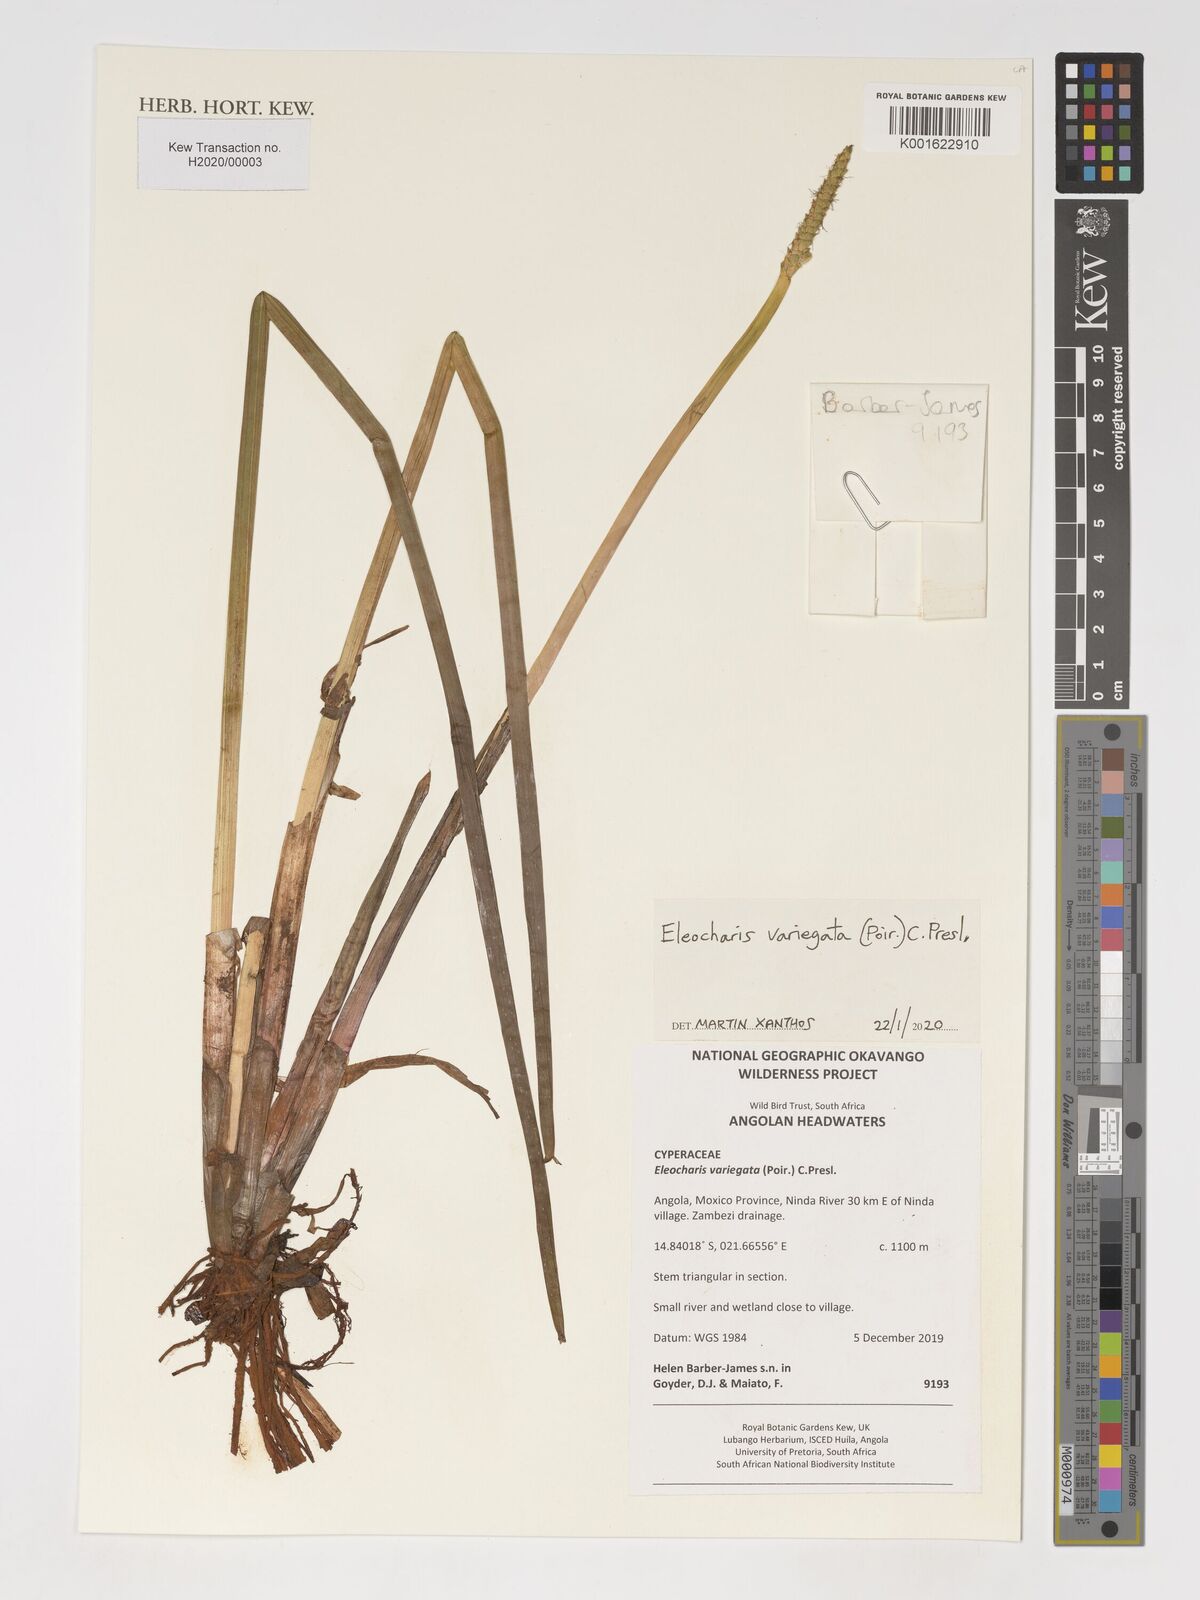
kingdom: Plantae
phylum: Tracheophyta
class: Liliopsida
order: Poales
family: Cyperaceae
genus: Eleocharis
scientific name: Eleocharis variegata
